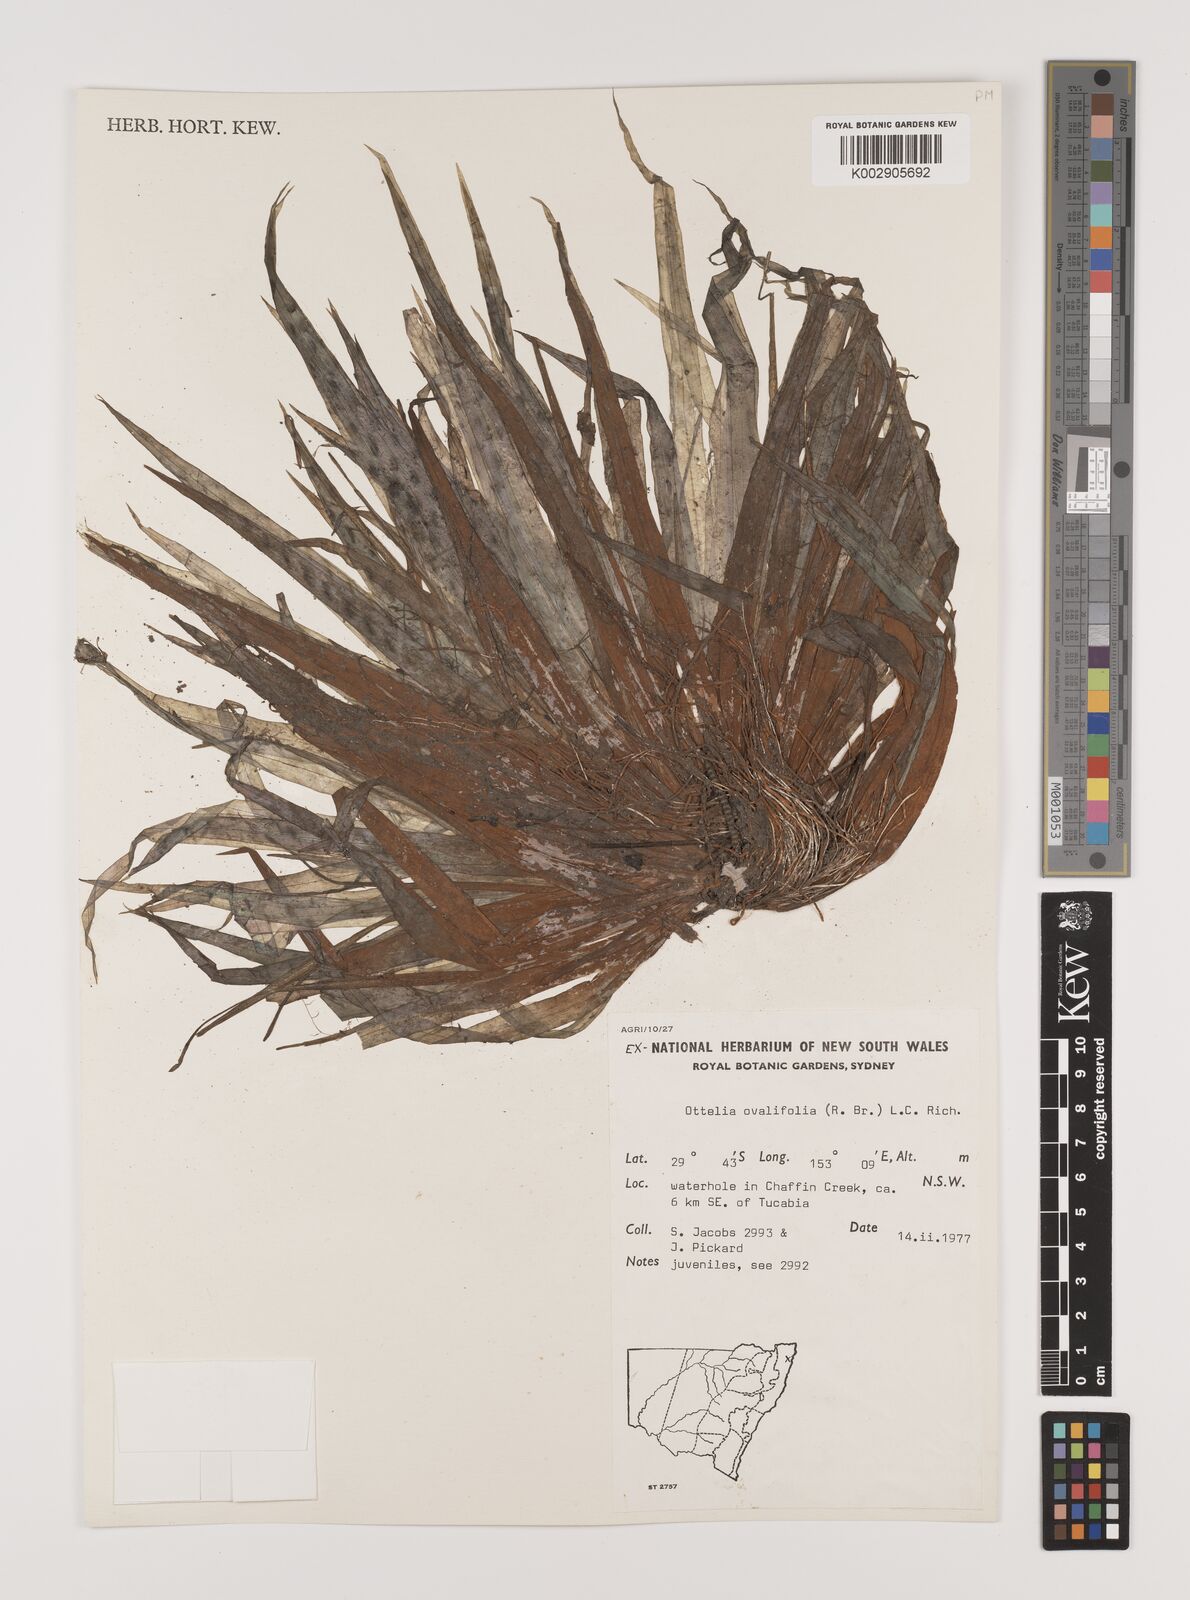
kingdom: Plantae
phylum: Tracheophyta
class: Liliopsida
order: Alismatales
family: Hydrocharitaceae
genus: Ottelia
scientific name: Ottelia ovalifolia
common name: Swamp-lily
